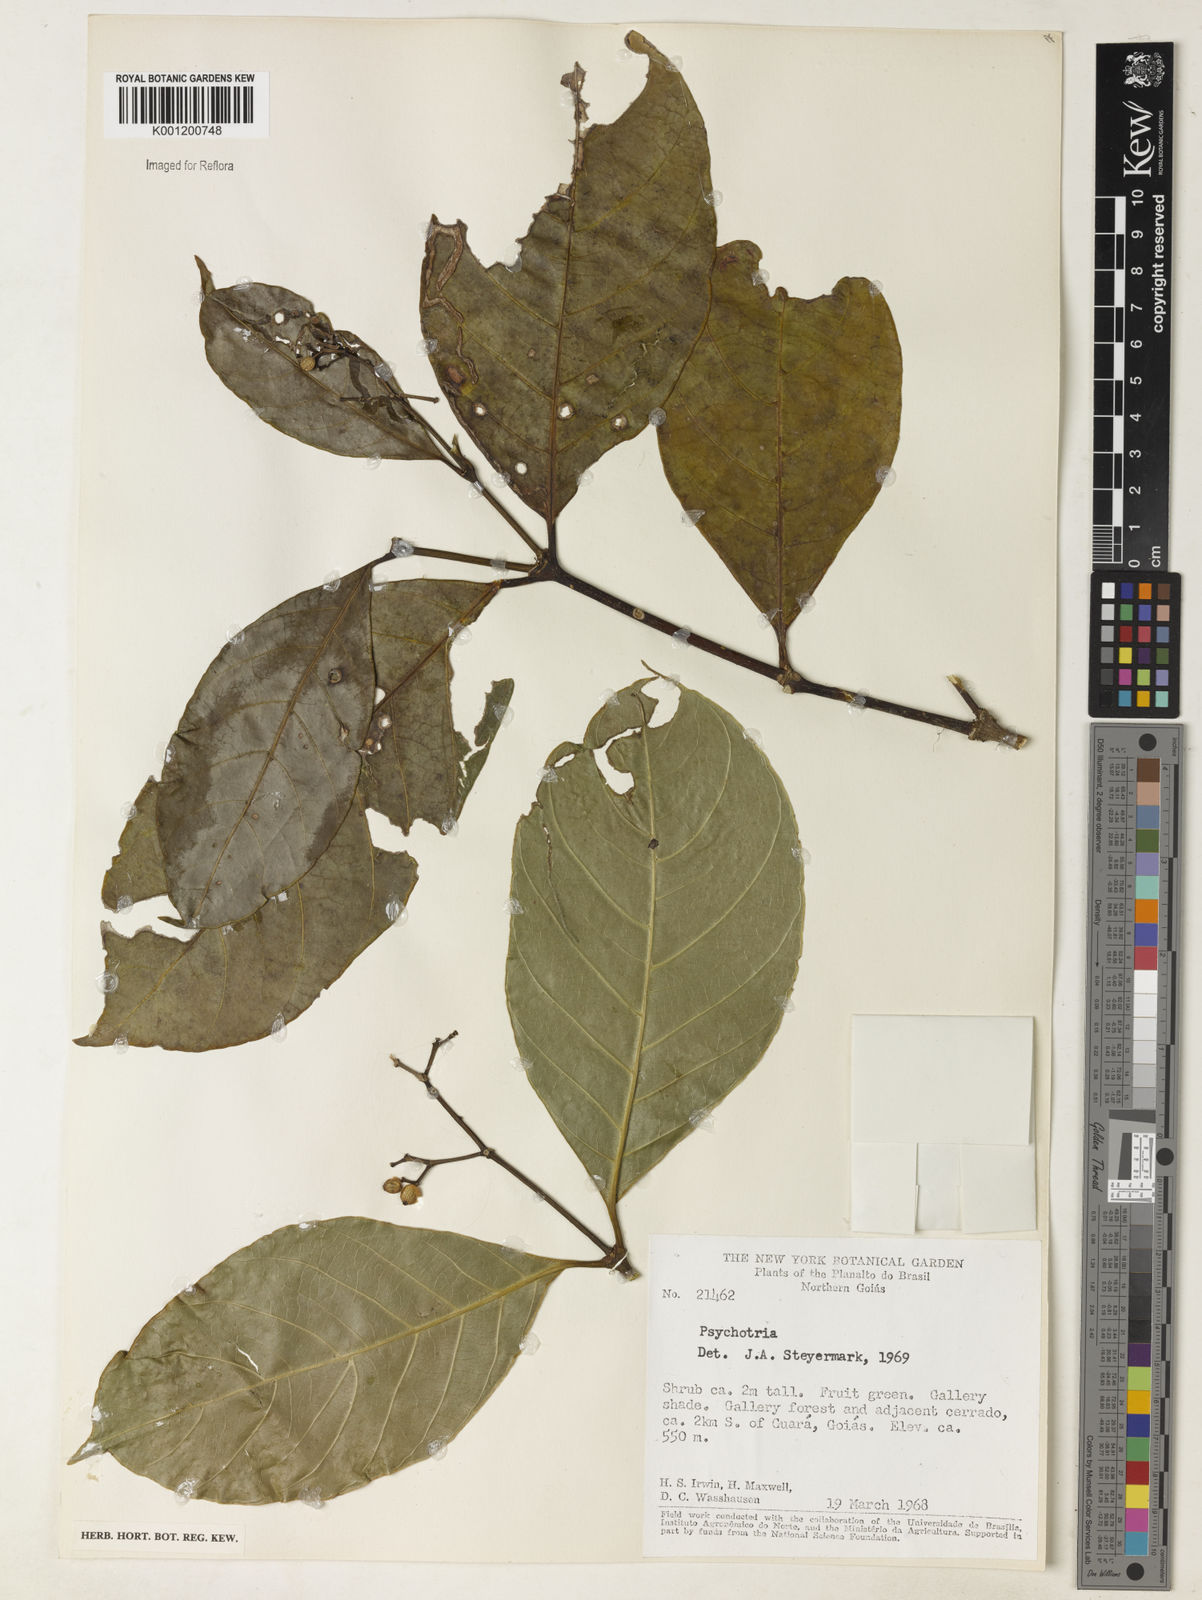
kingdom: Plantae
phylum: Tracheophyta
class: Magnoliopsida
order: Gentianales
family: Rubiaceae
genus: Psychotria
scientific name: Psychotria
